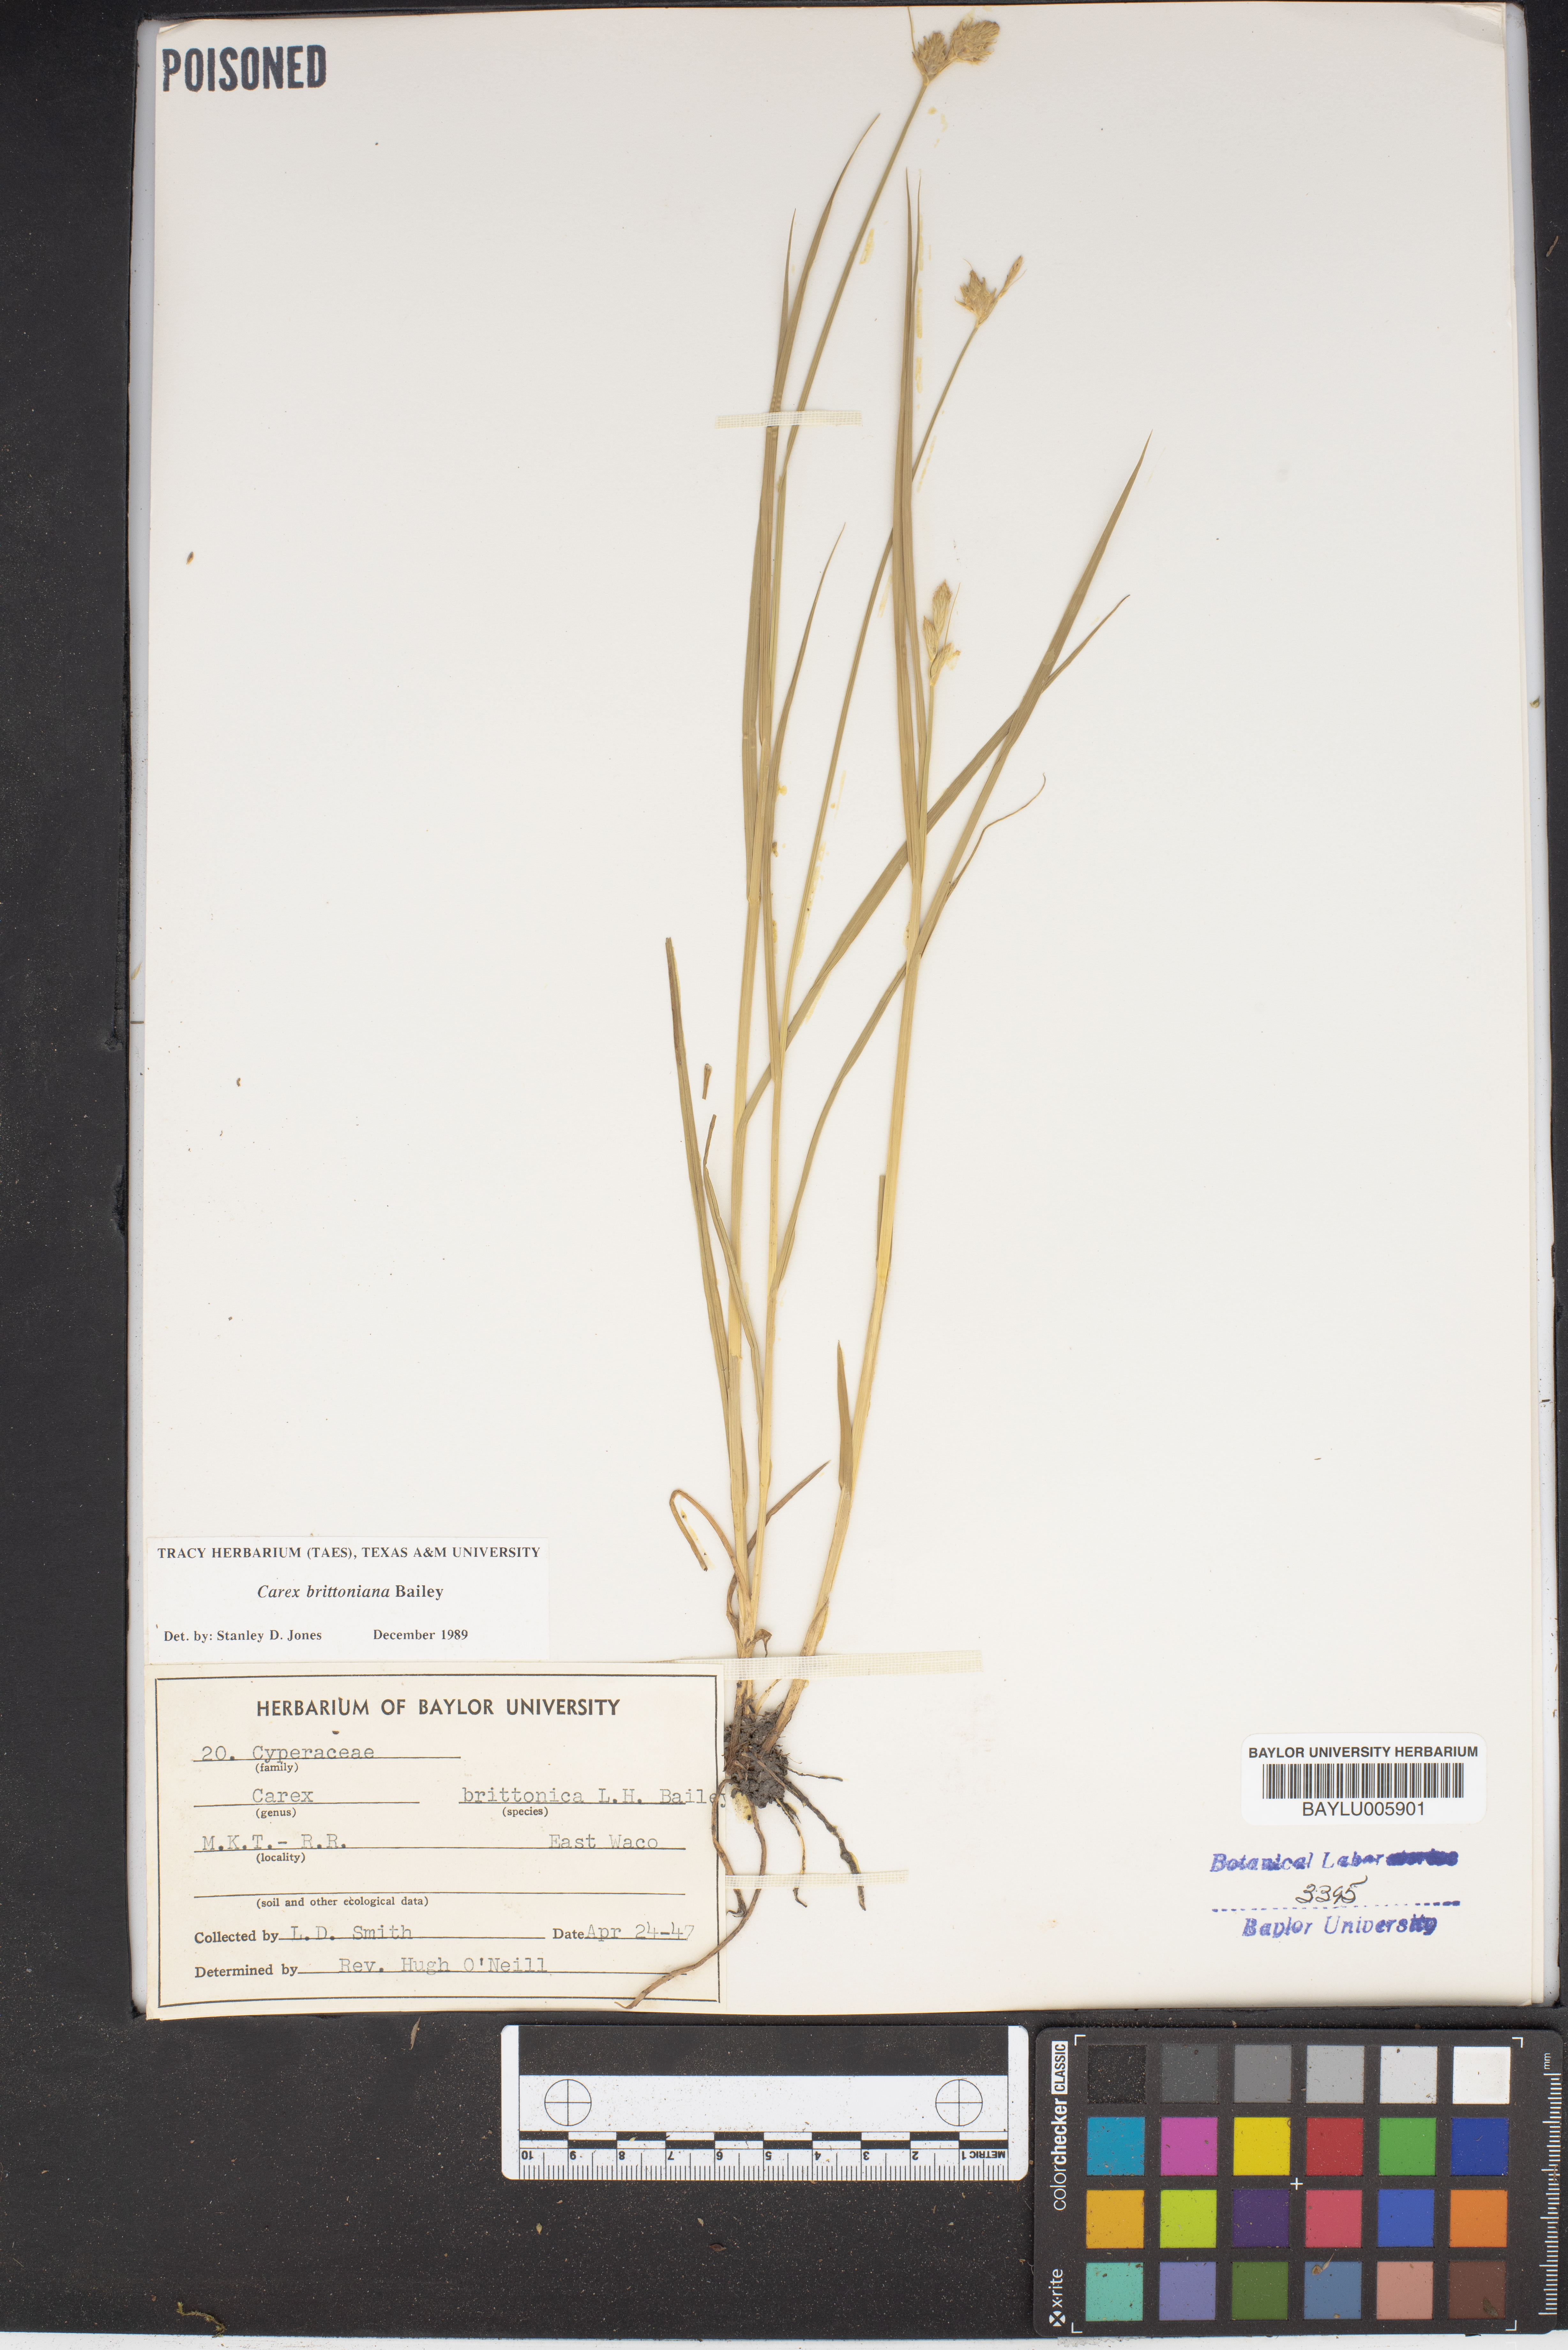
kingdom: Plantae
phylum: Tracheophyta
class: Liliopsida
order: Poales
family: Cyperaceae
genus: Carex
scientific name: Carex tetrastachya
